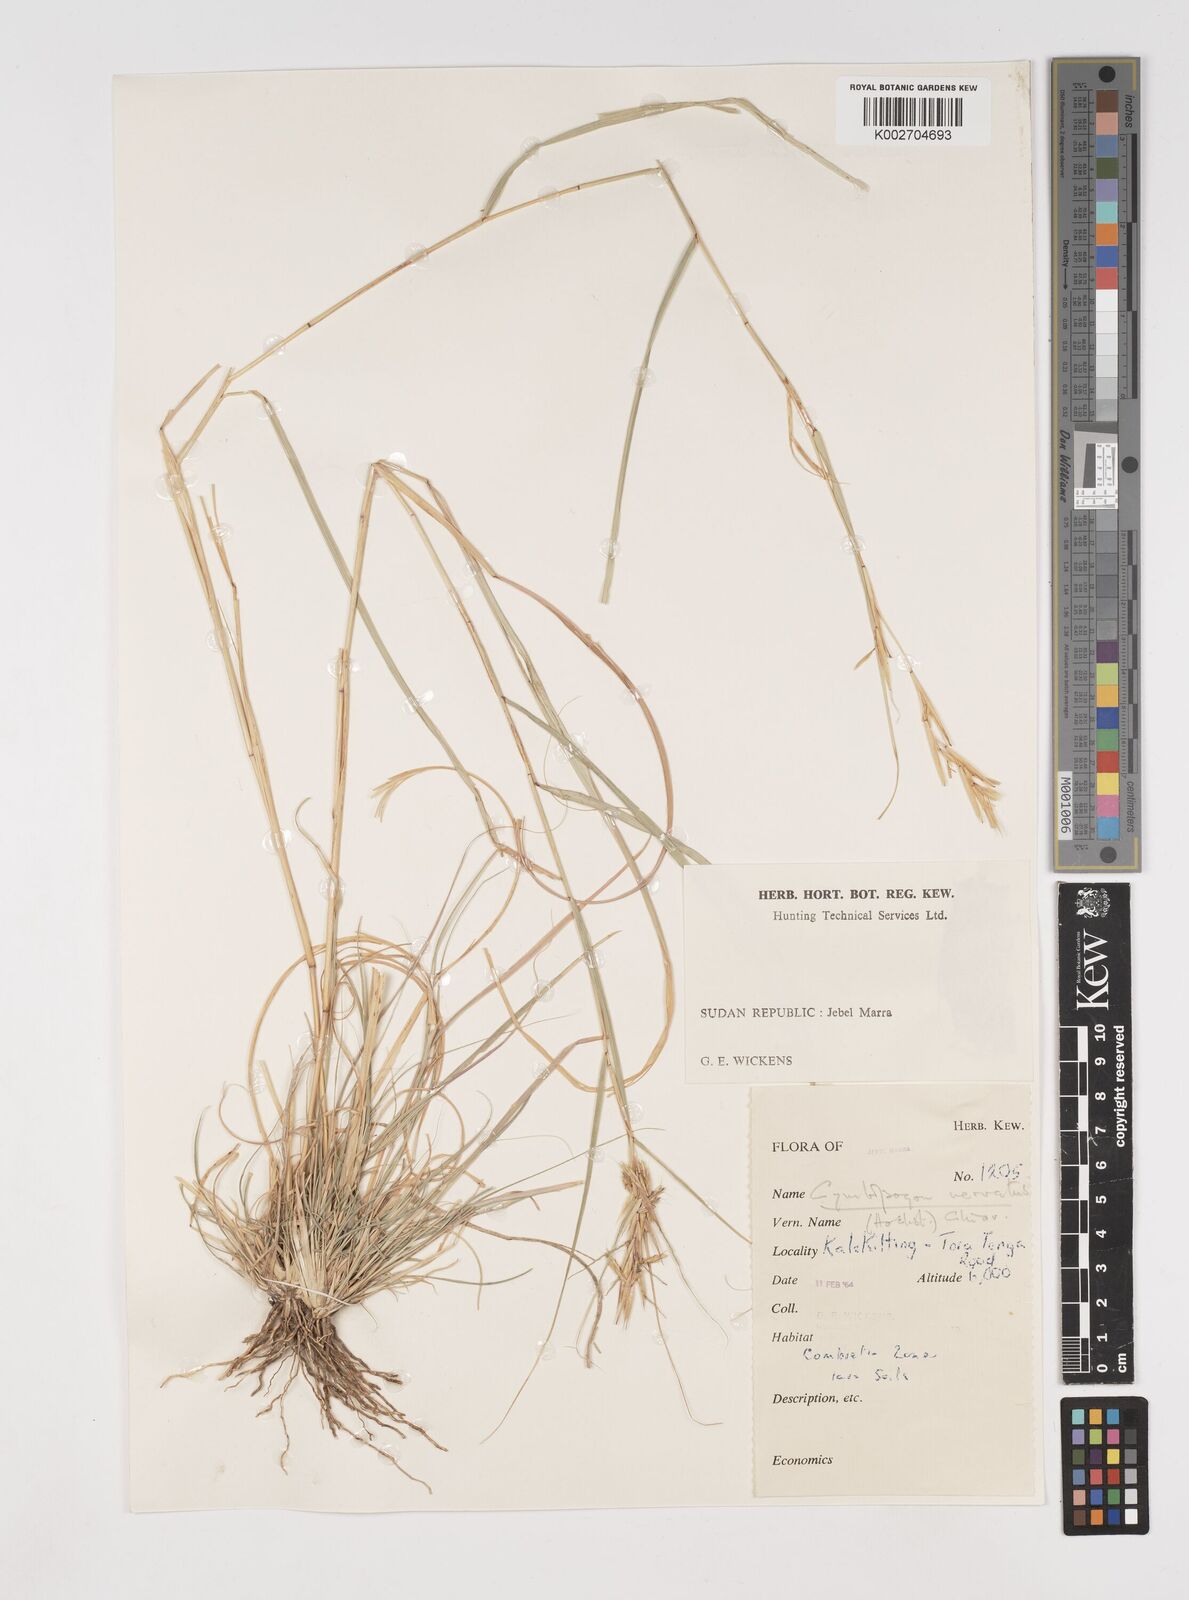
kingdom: Plantae
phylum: Tracheophyta
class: Liliopsida
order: Poales
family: Poaceae
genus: Cymbopogon
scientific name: Cymbopogon caesius
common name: Kachi grass
